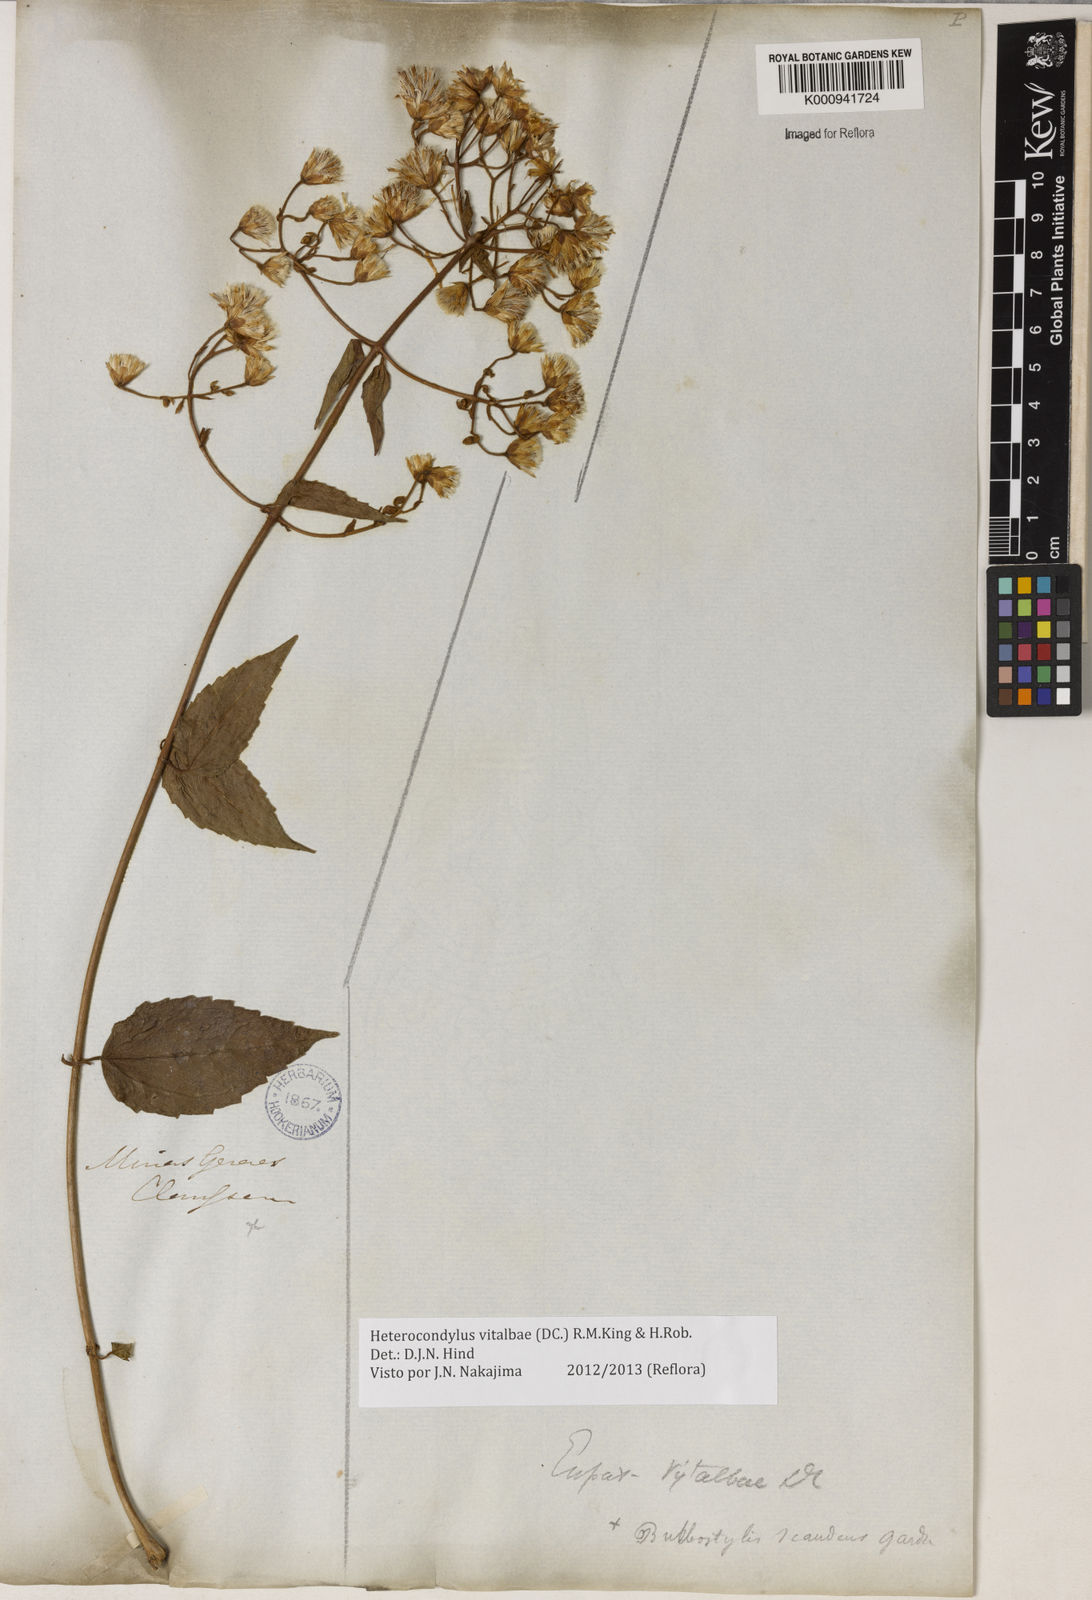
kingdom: Plantae
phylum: Tracheophyta
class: Magnoliopsida
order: Asterales
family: Asteraceae
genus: Heterocondylus
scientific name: Heterocondylus vitalbae
